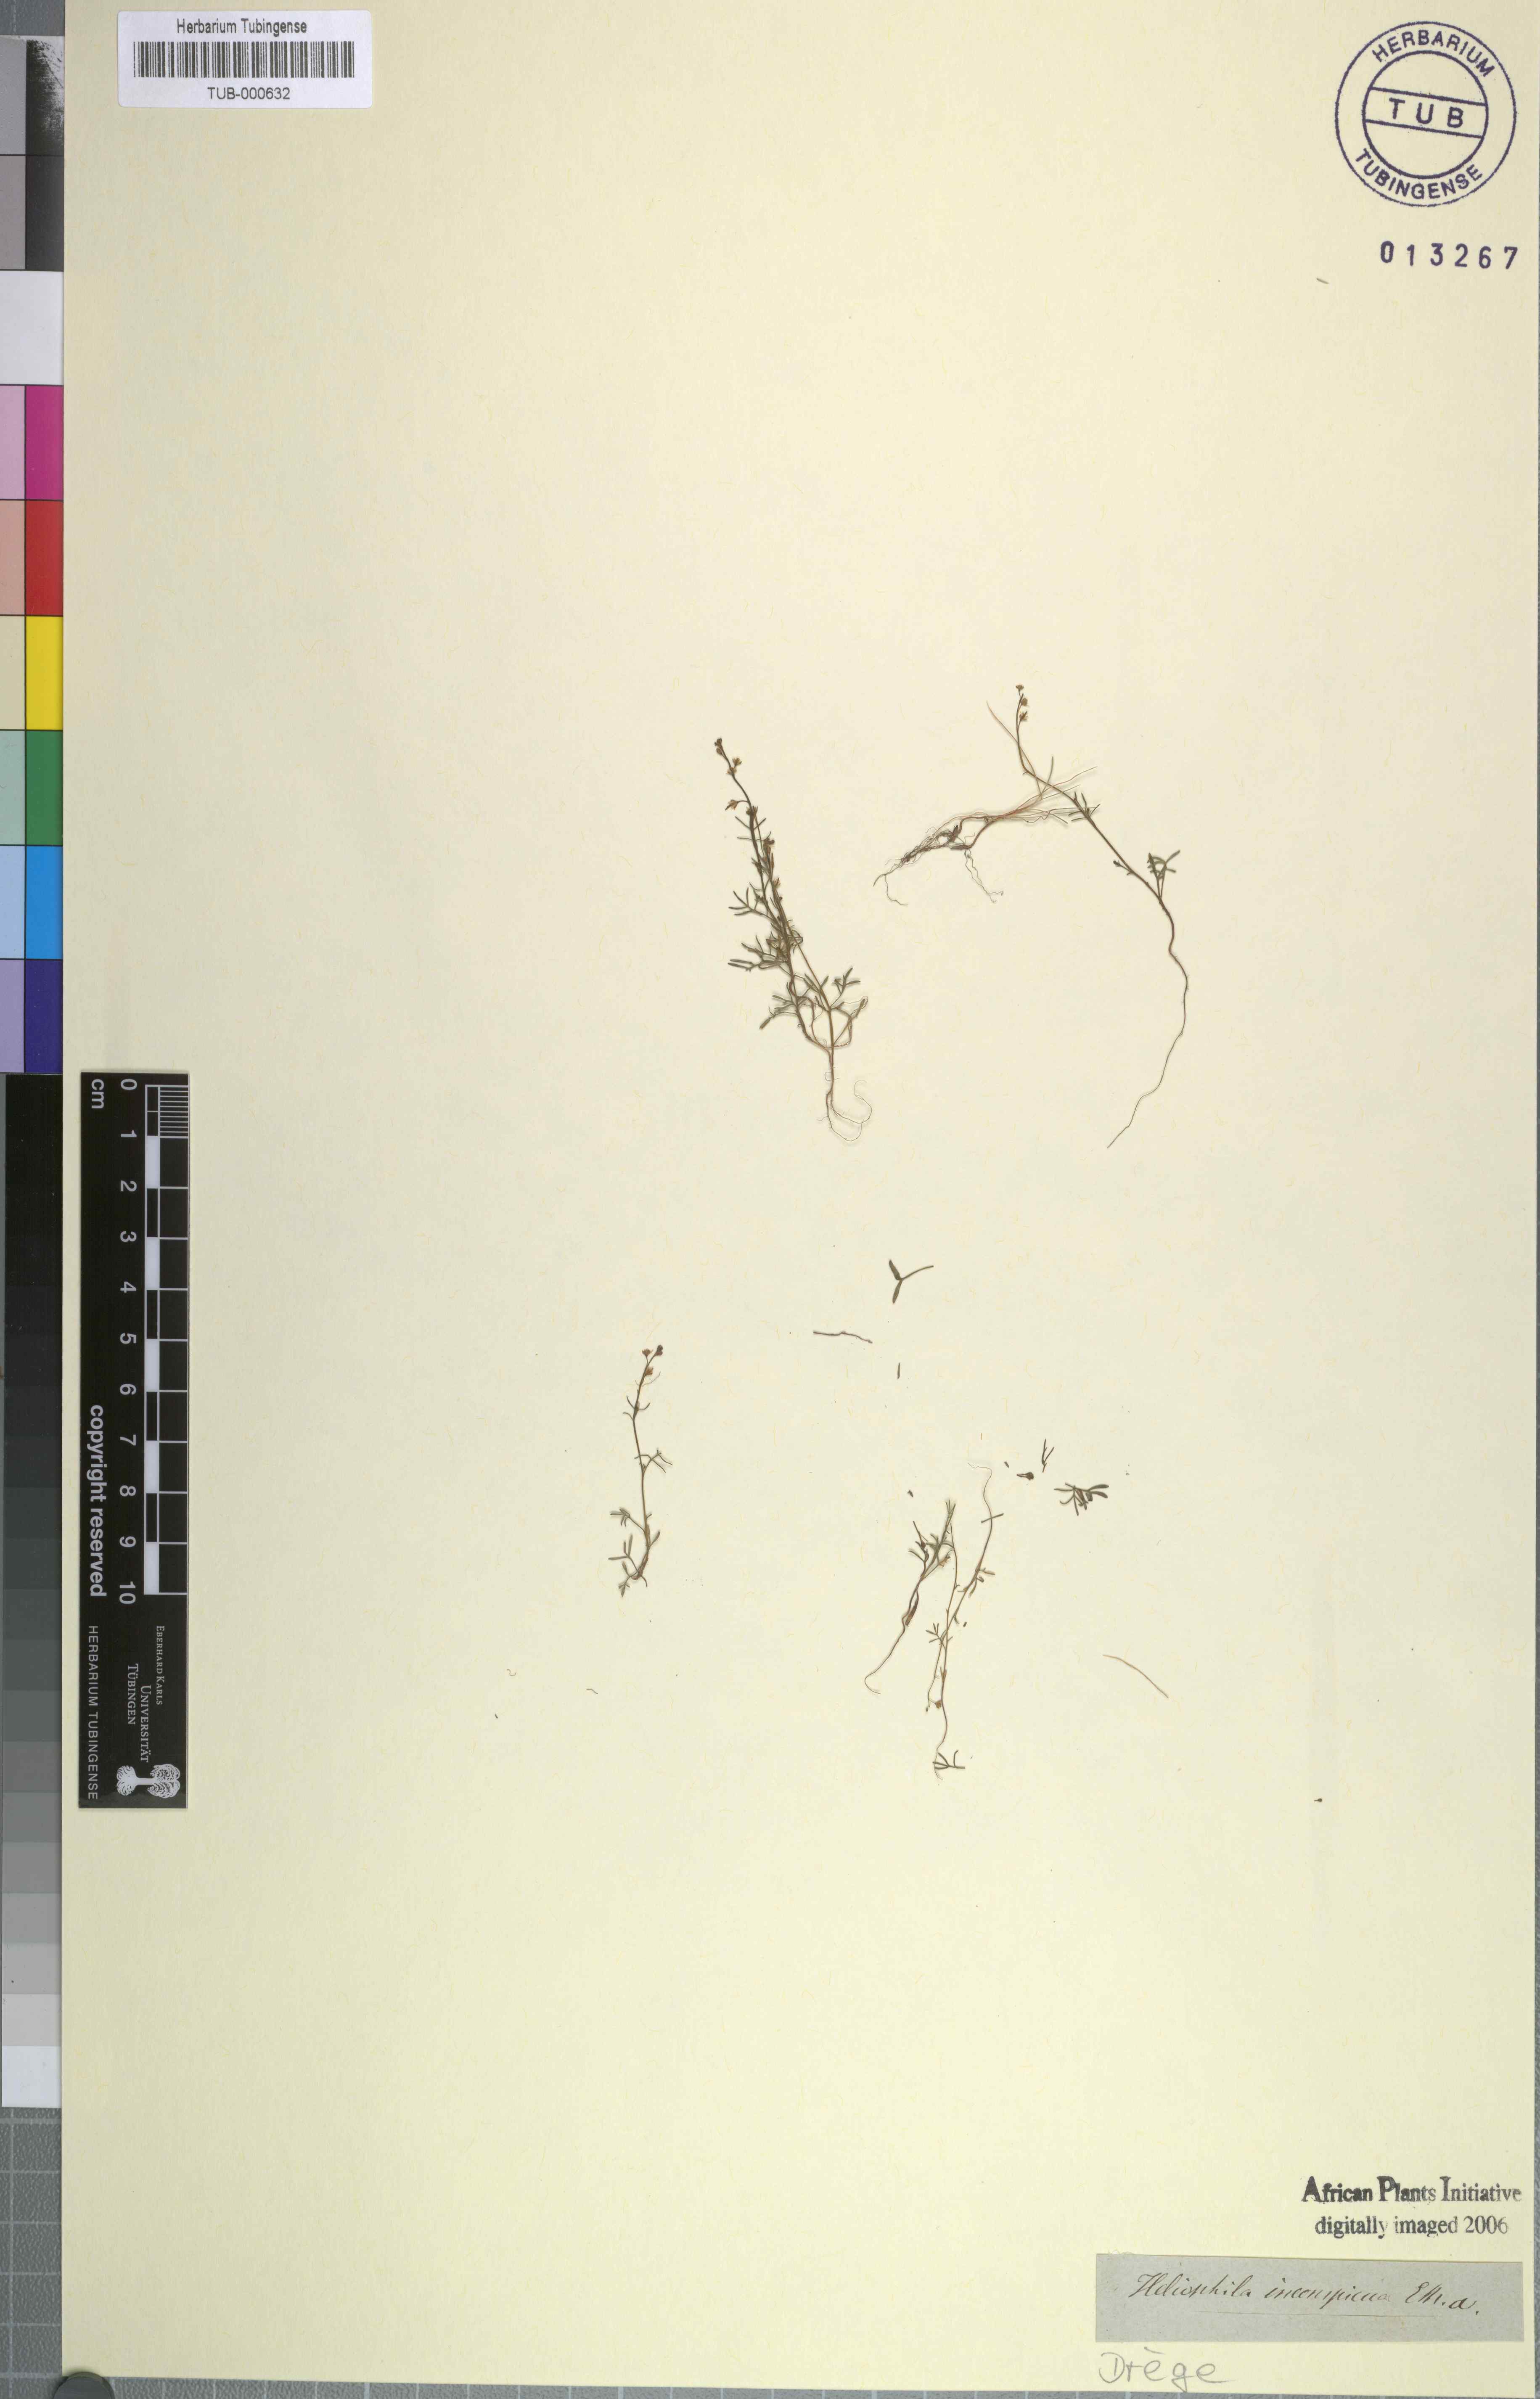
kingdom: Plantae
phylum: Tracheophyta
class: Magnoliopsida
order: Brassicales
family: Brassicaceae
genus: Heliophila
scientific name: Heliophila pectinata
